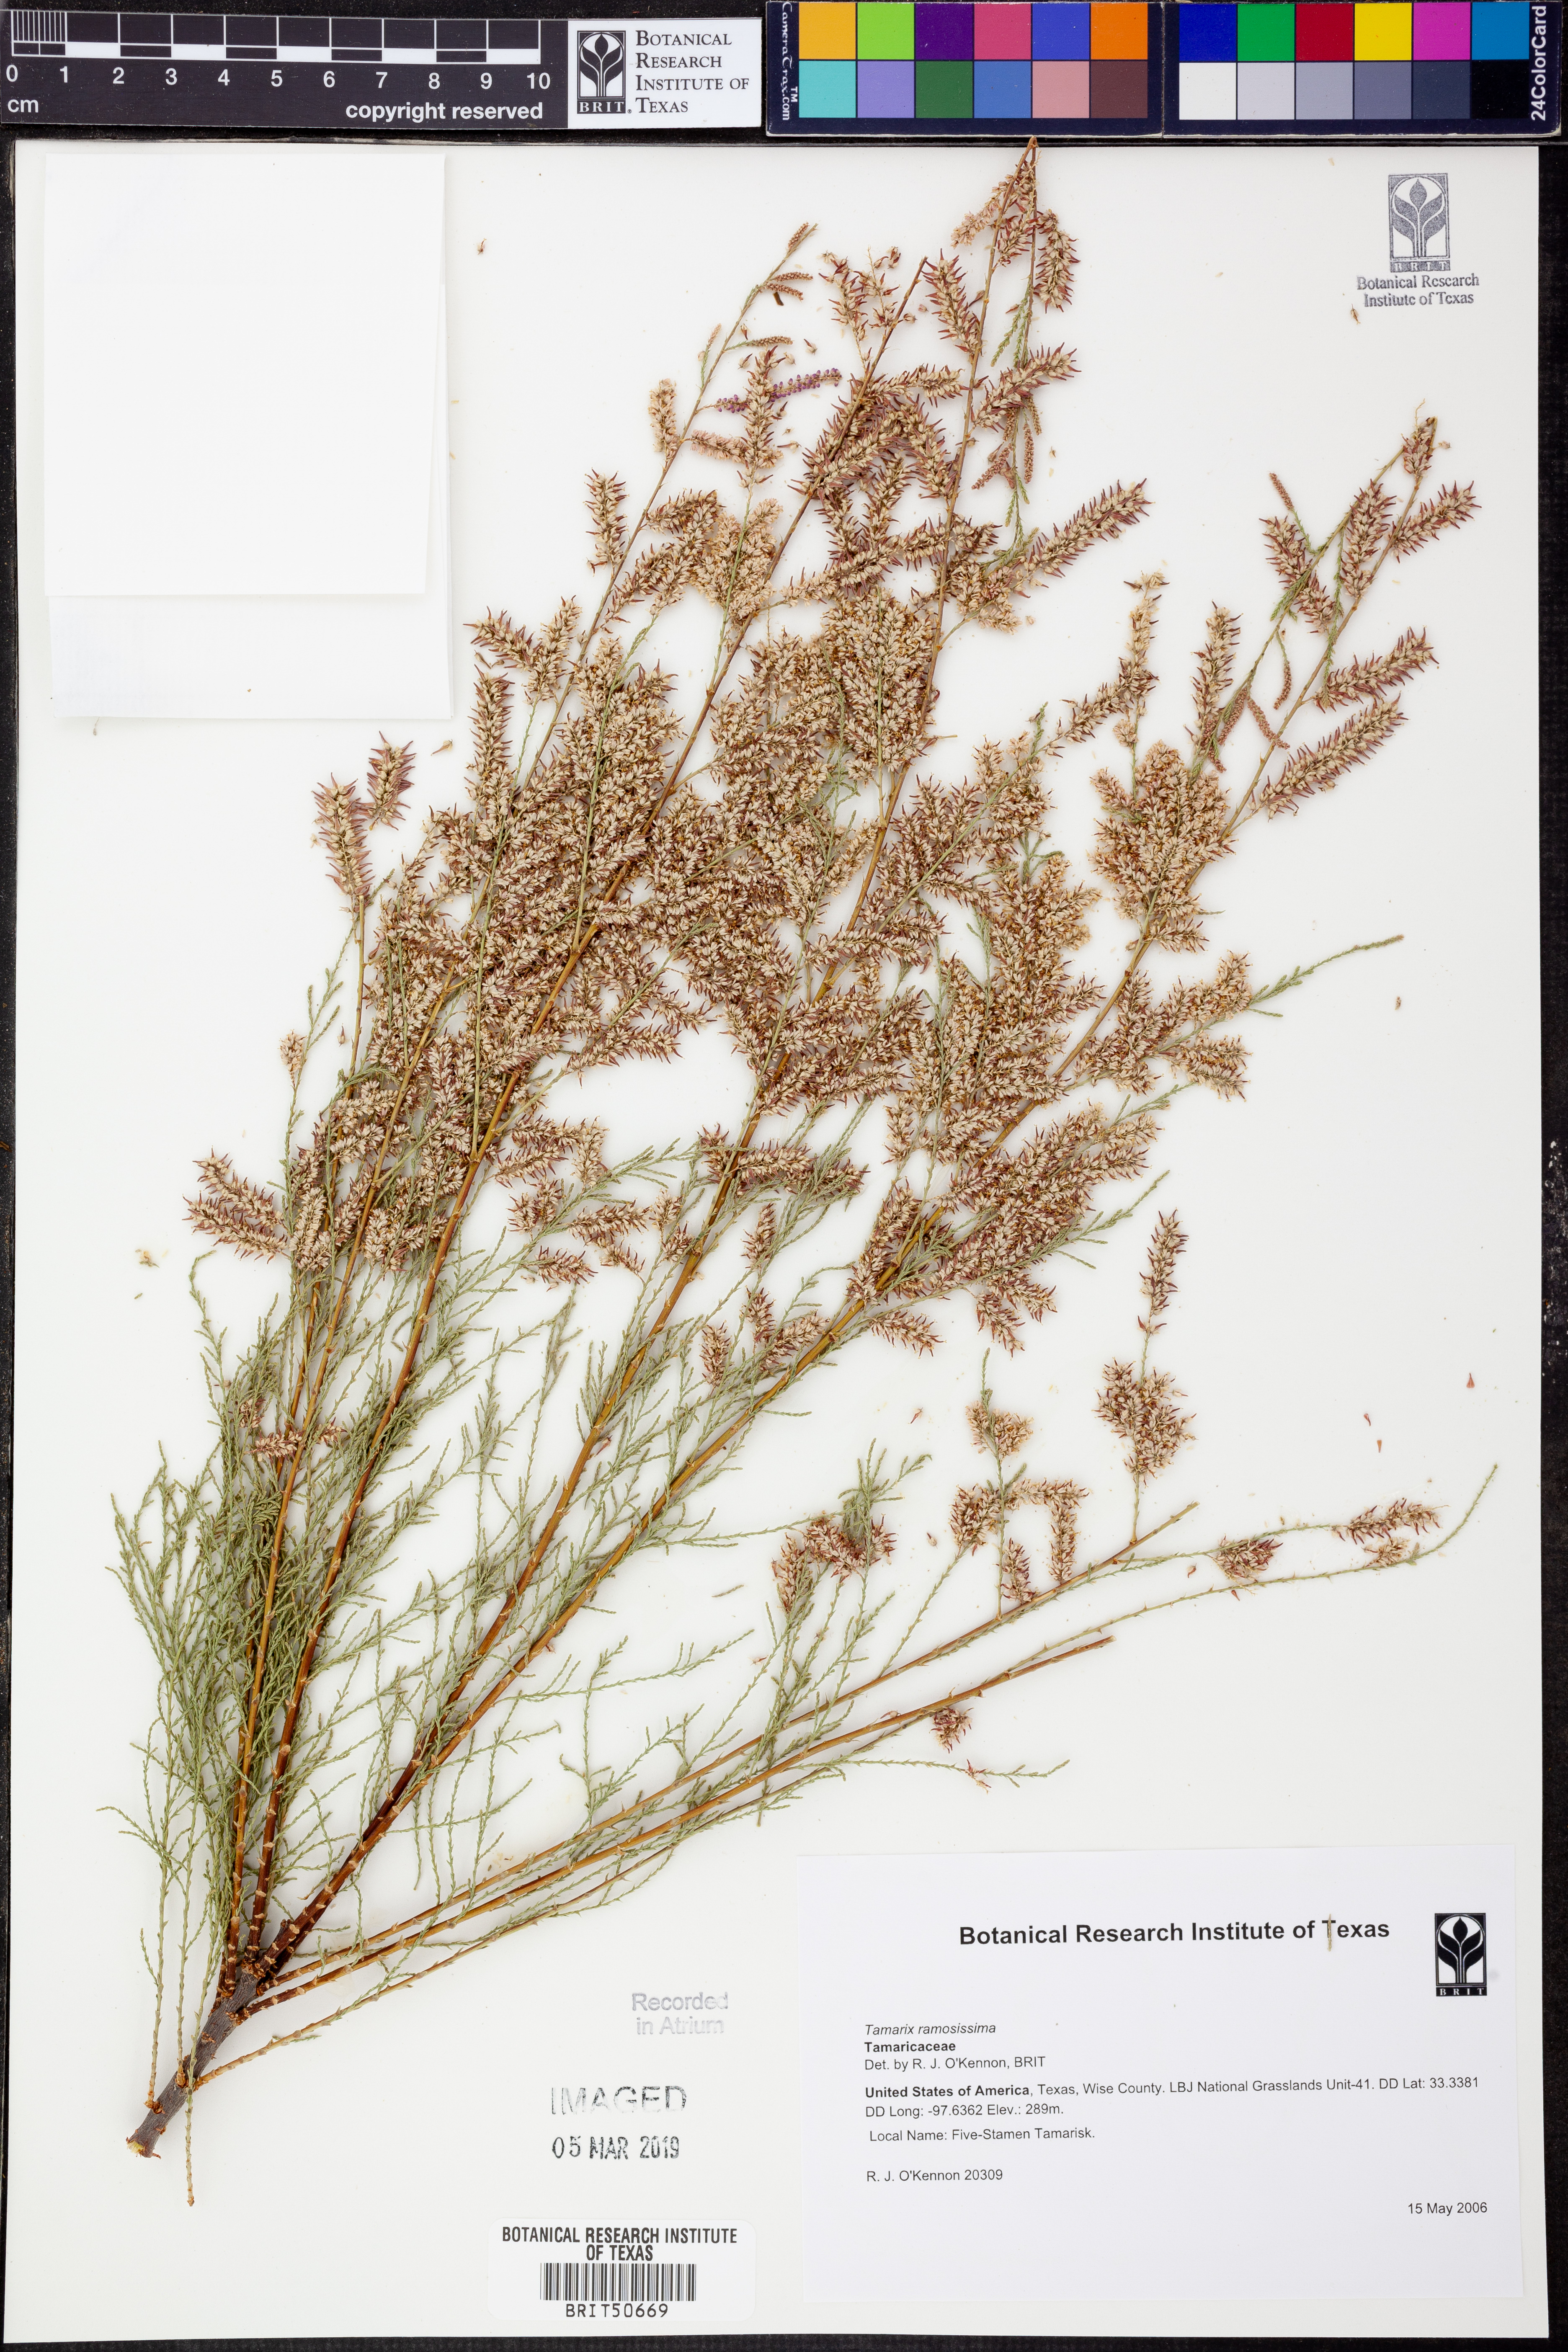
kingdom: Plantae
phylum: Tracheophyta
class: Magnoliopsida
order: Caryophyllales
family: Tamaricaceae
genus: Tamarix
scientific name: Tamarix ramosissima
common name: Pink tamarisk
